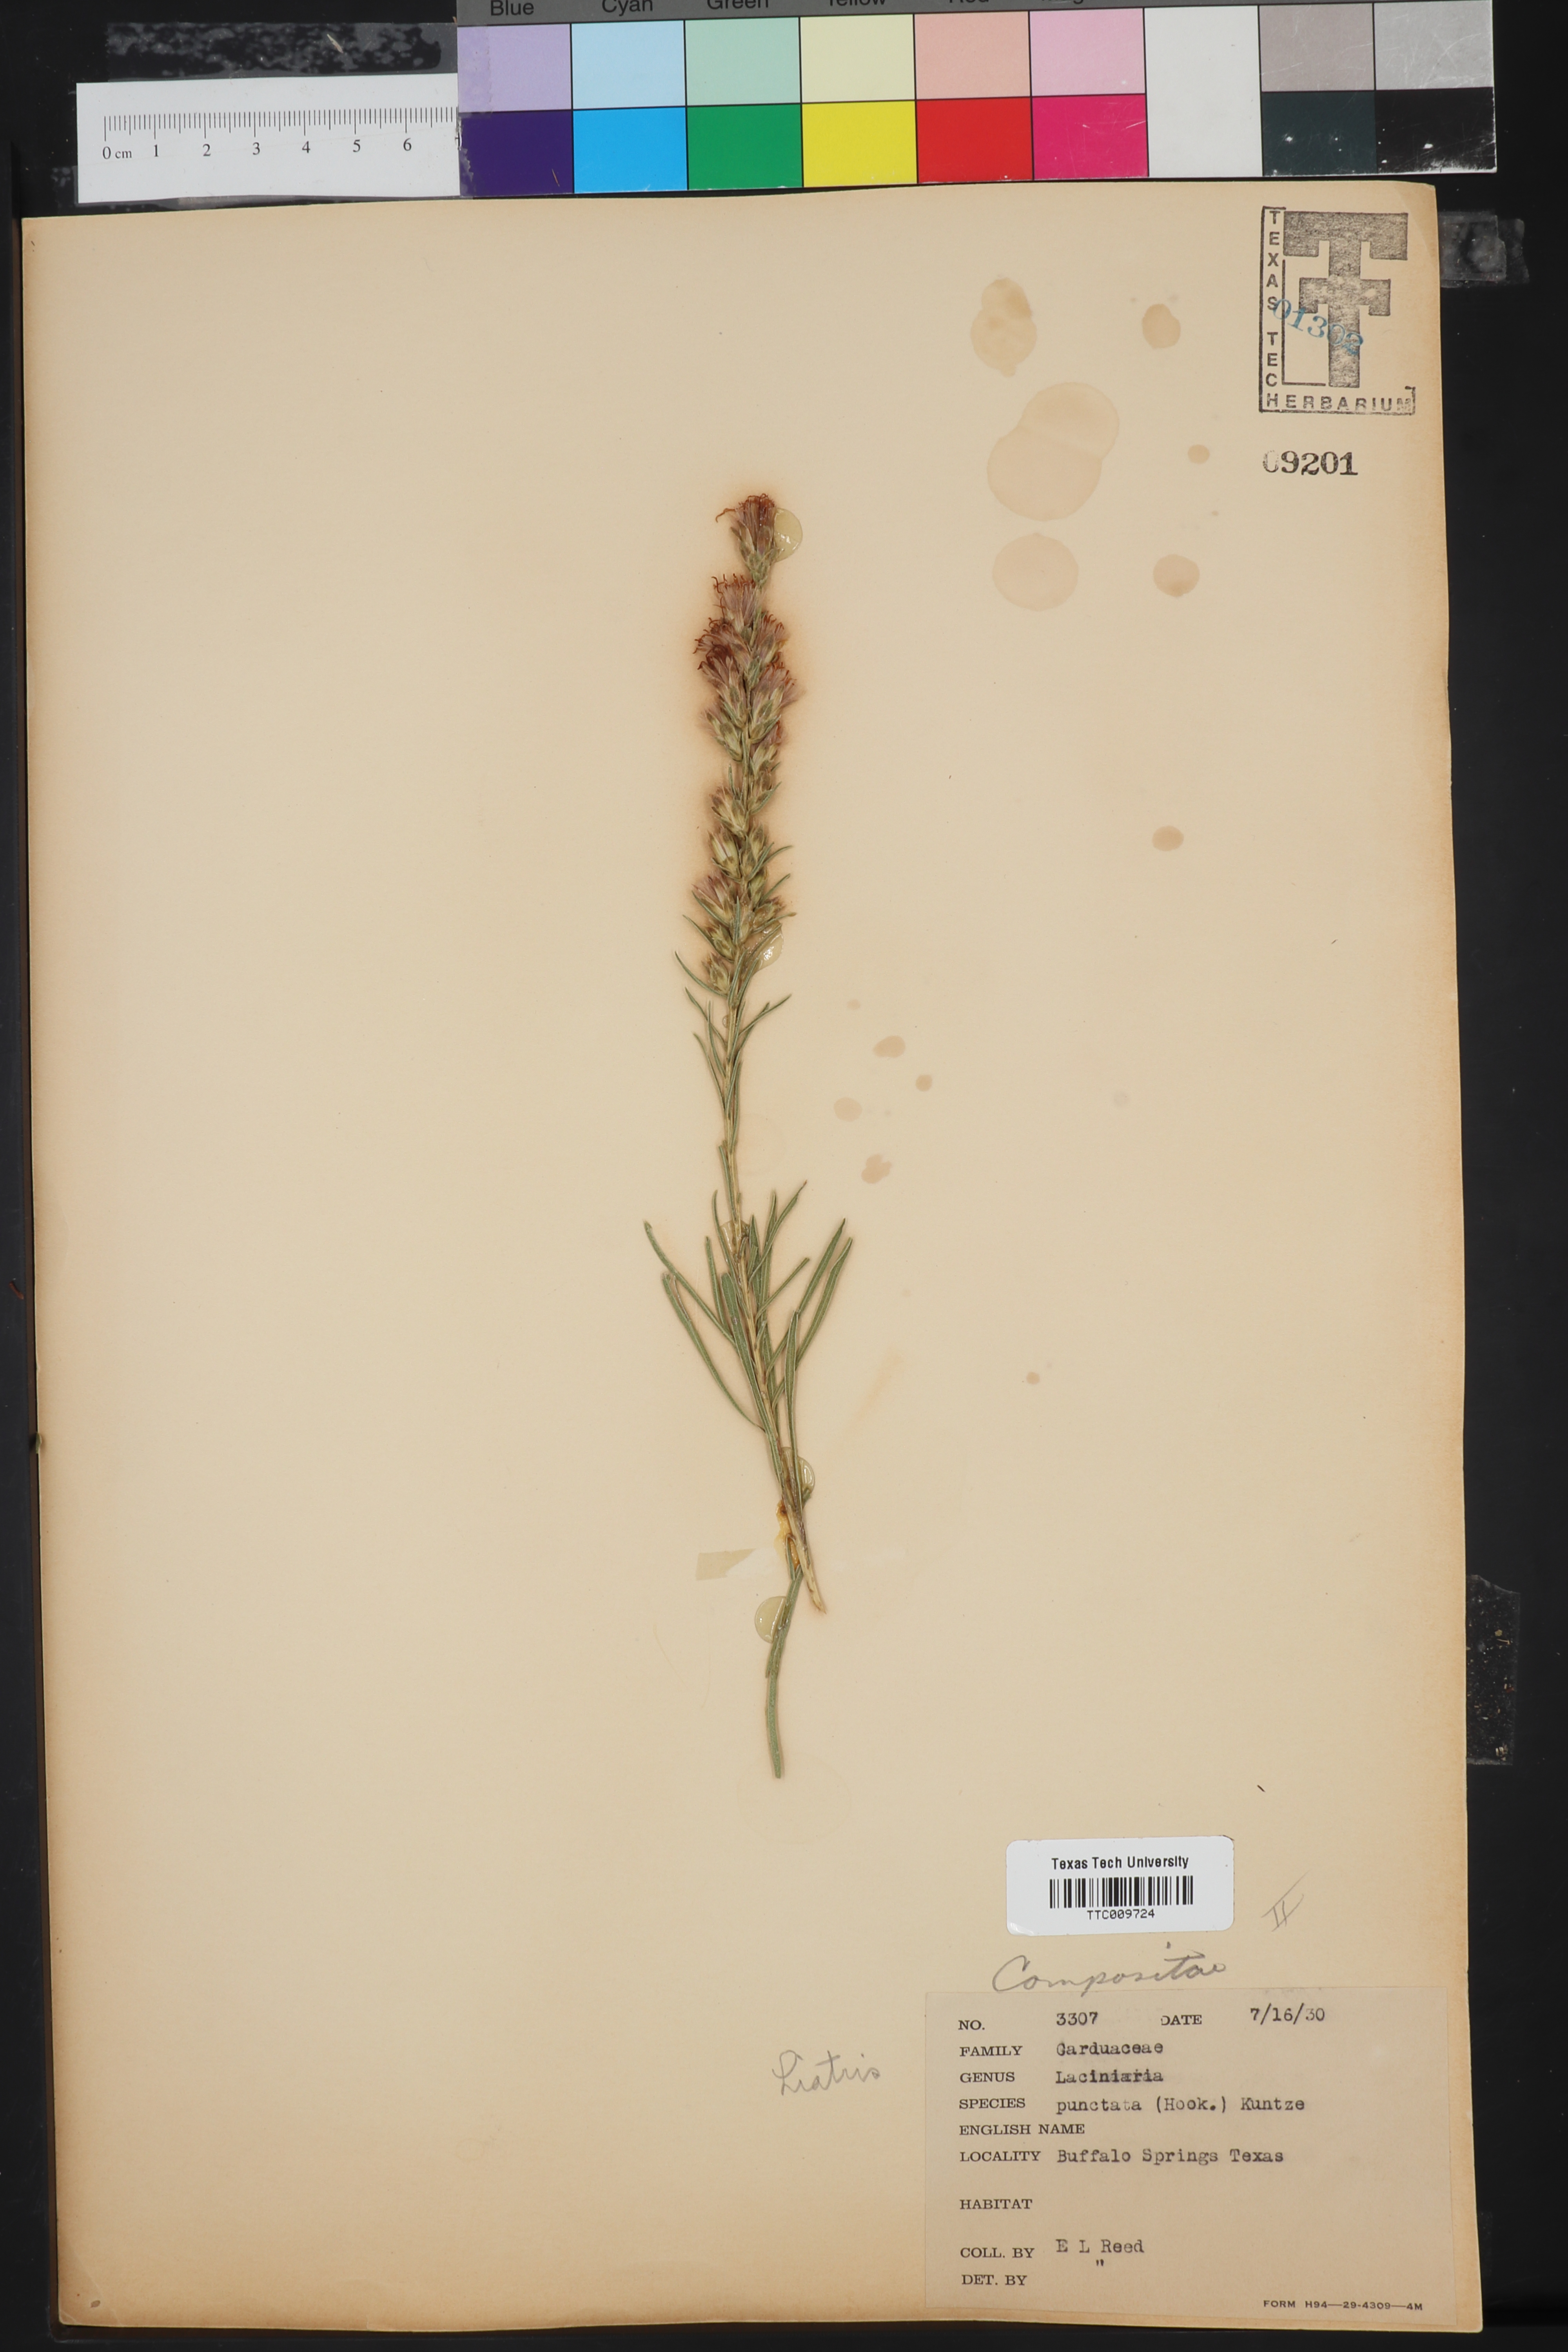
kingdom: Plantae
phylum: Tracheophyta
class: Magnoliopsida
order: Asterales
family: Asteraceae
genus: Liatris
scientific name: Liatris punctata
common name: Dotted gayfeather
